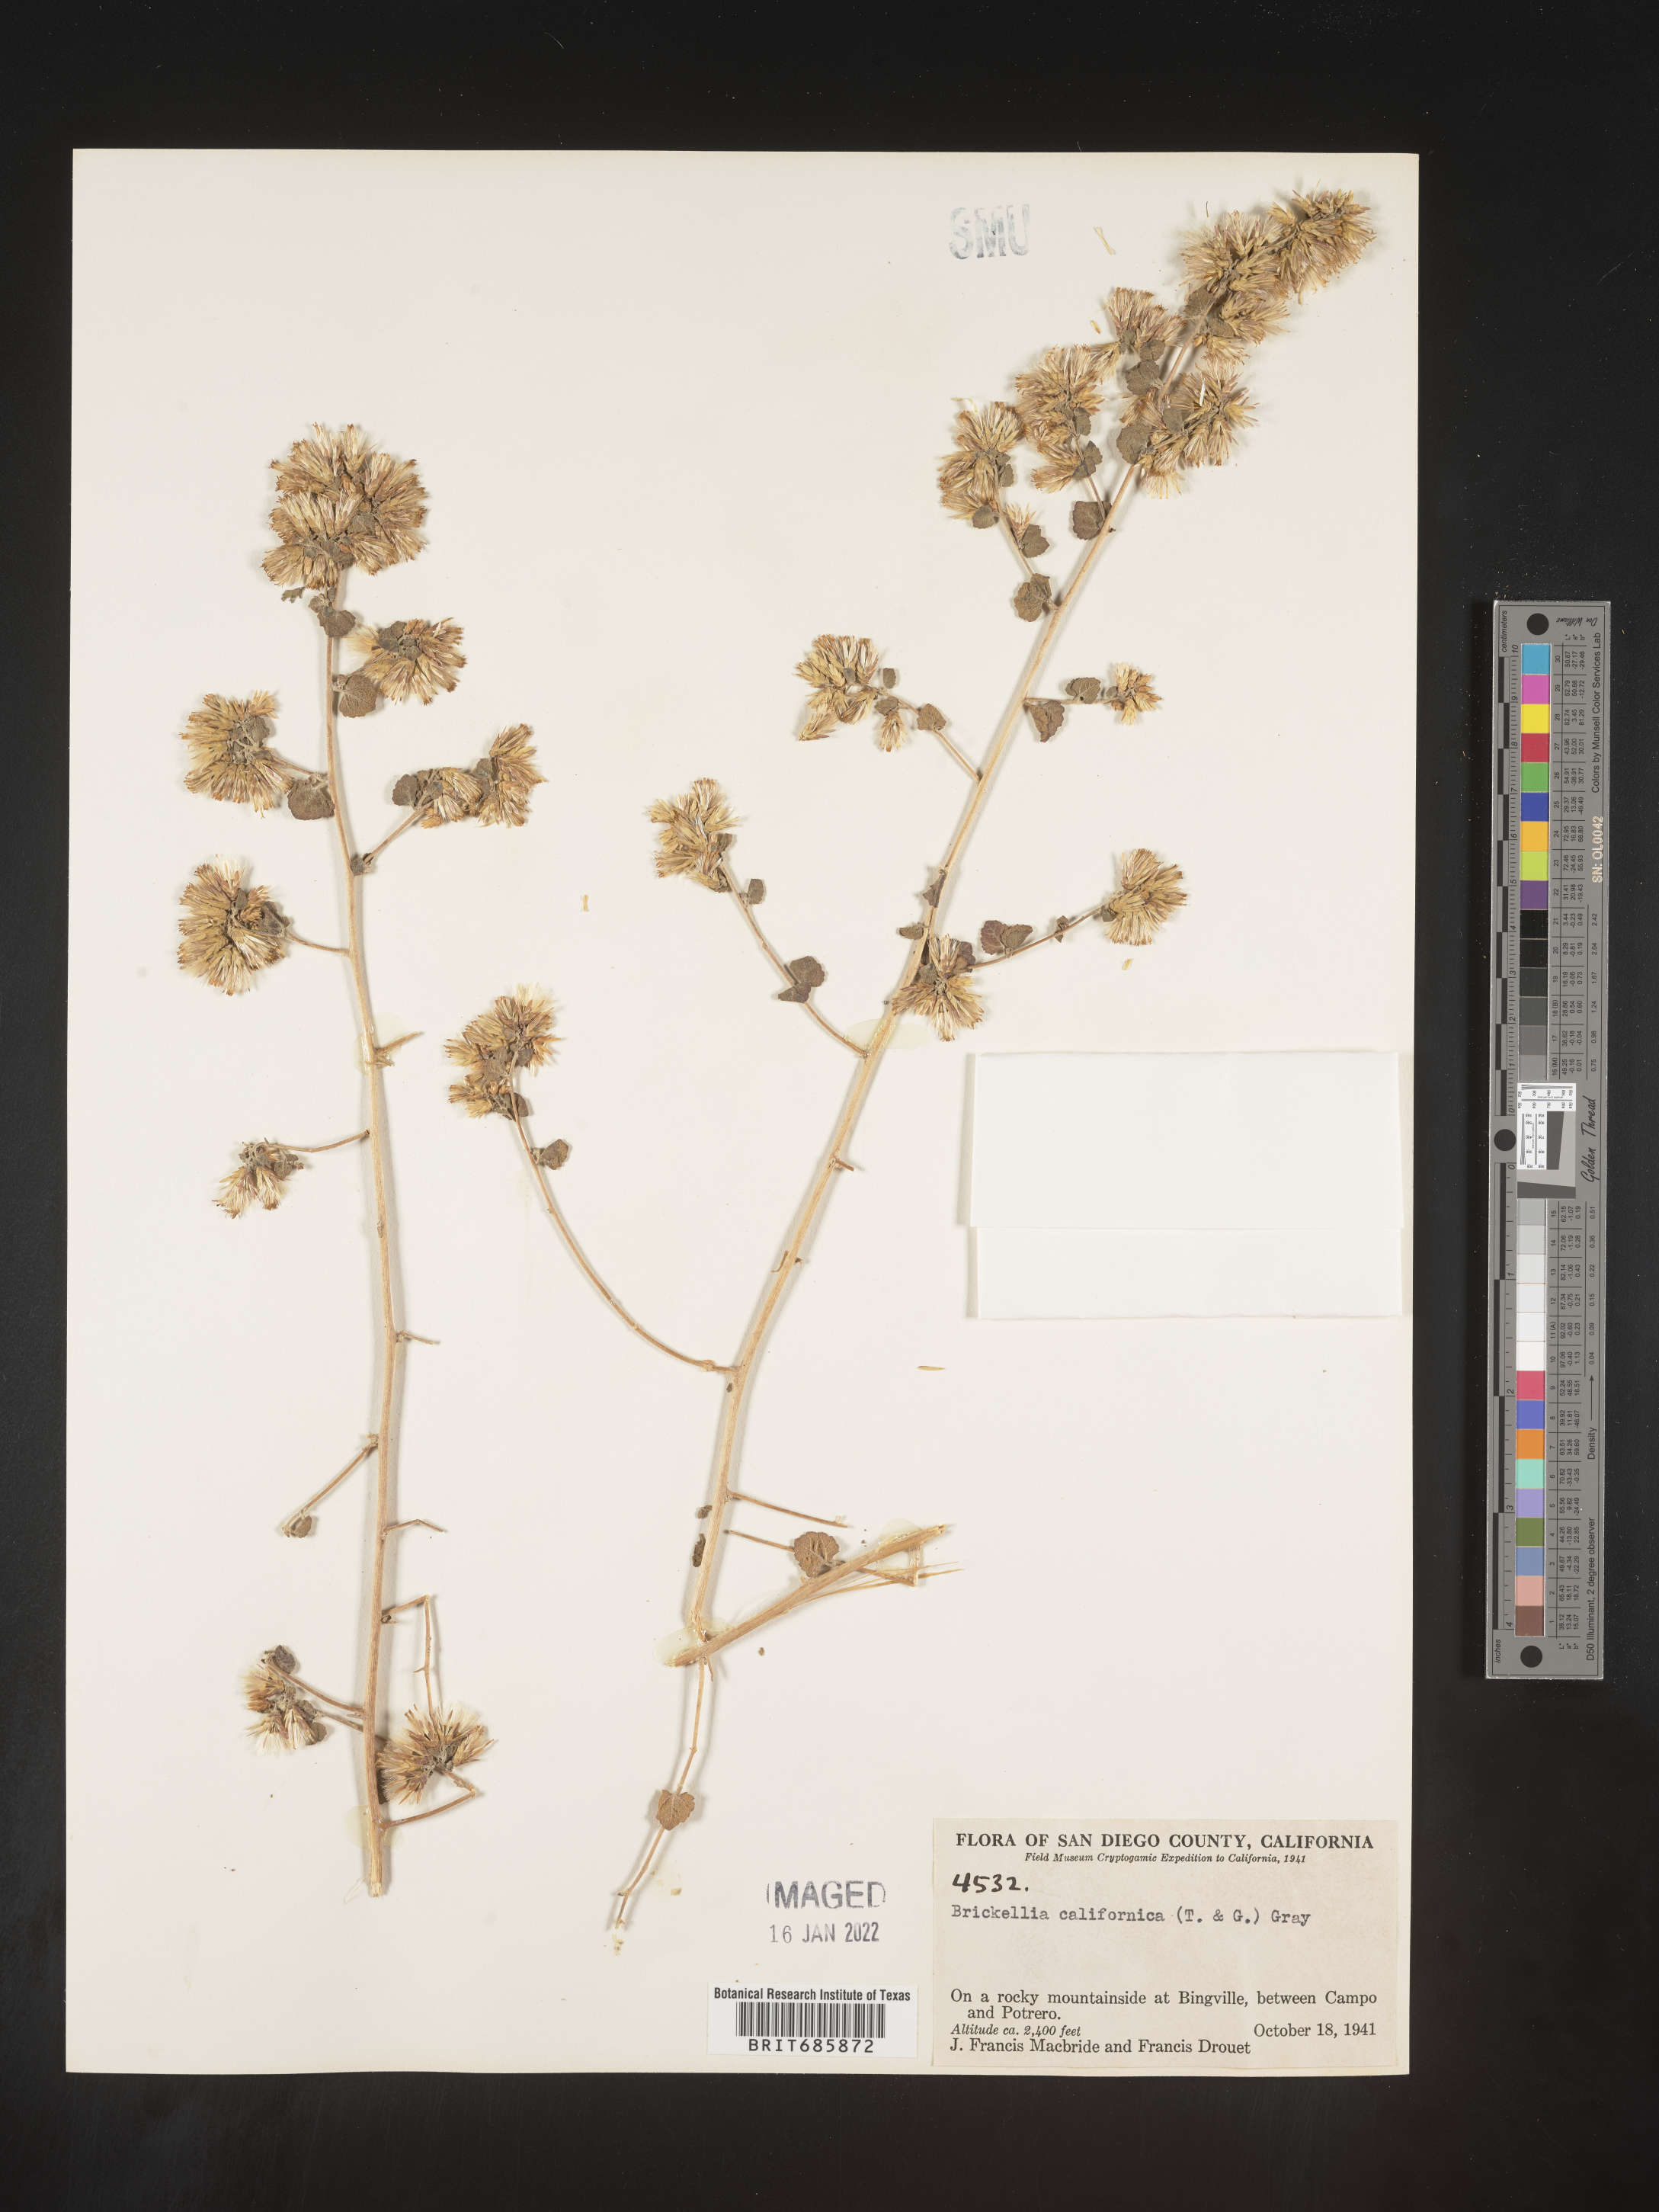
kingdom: Plantae
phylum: Tracheophyta
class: Magnoliopsida
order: Asterales
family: Asteraceae
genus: Brickellia
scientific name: Brickellia californica
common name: California brickellbush
